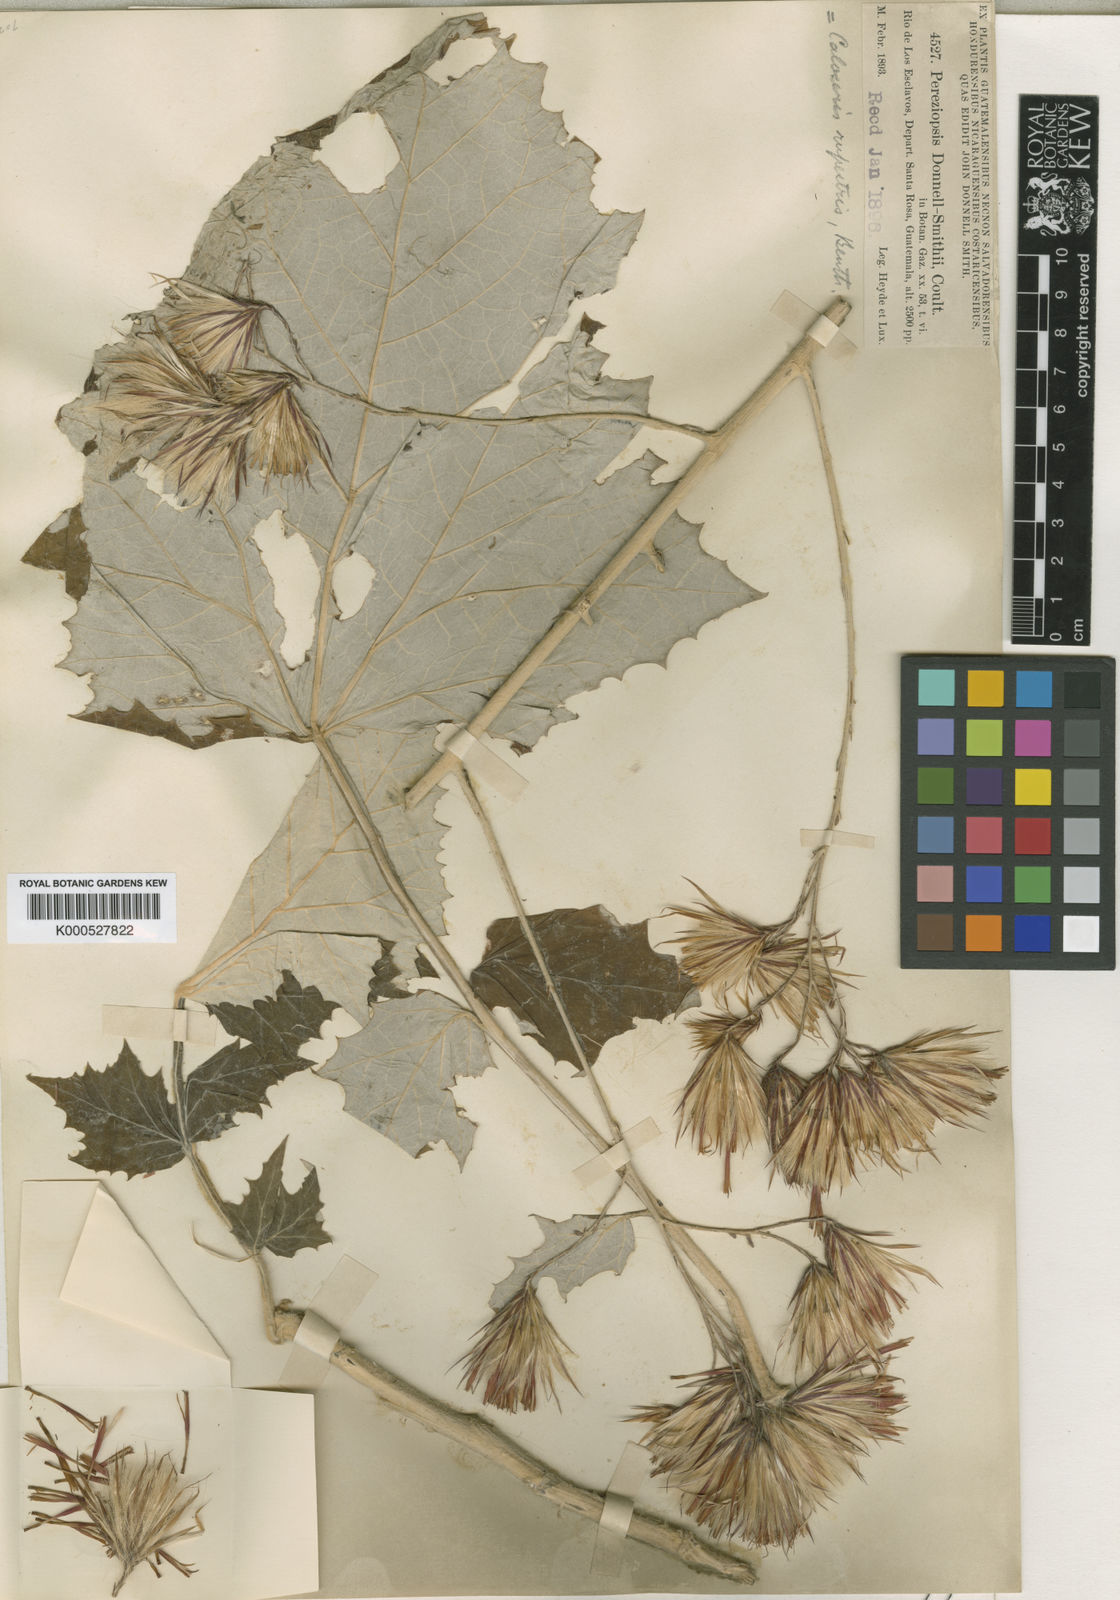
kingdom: Plantae
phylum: Tracheophyta
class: Magnoliopsida
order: Asterales
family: Asteraceae
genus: Onoseris
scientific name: Onoseris onoseroides
